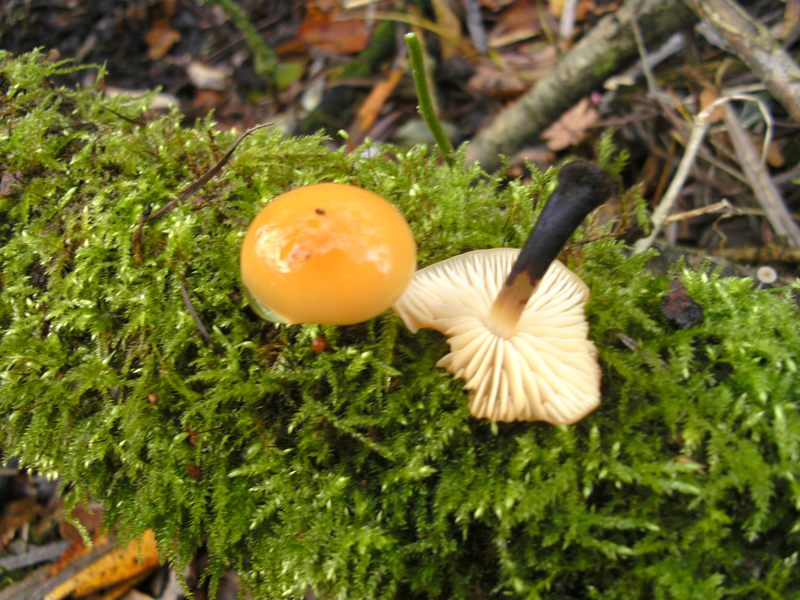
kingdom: Fungi
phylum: Basidiomycota
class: Agaricomycetes
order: Agaricales
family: Physalacriaceae
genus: Flammulina
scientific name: Flammulina elastica
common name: pile-fløjlsfod
